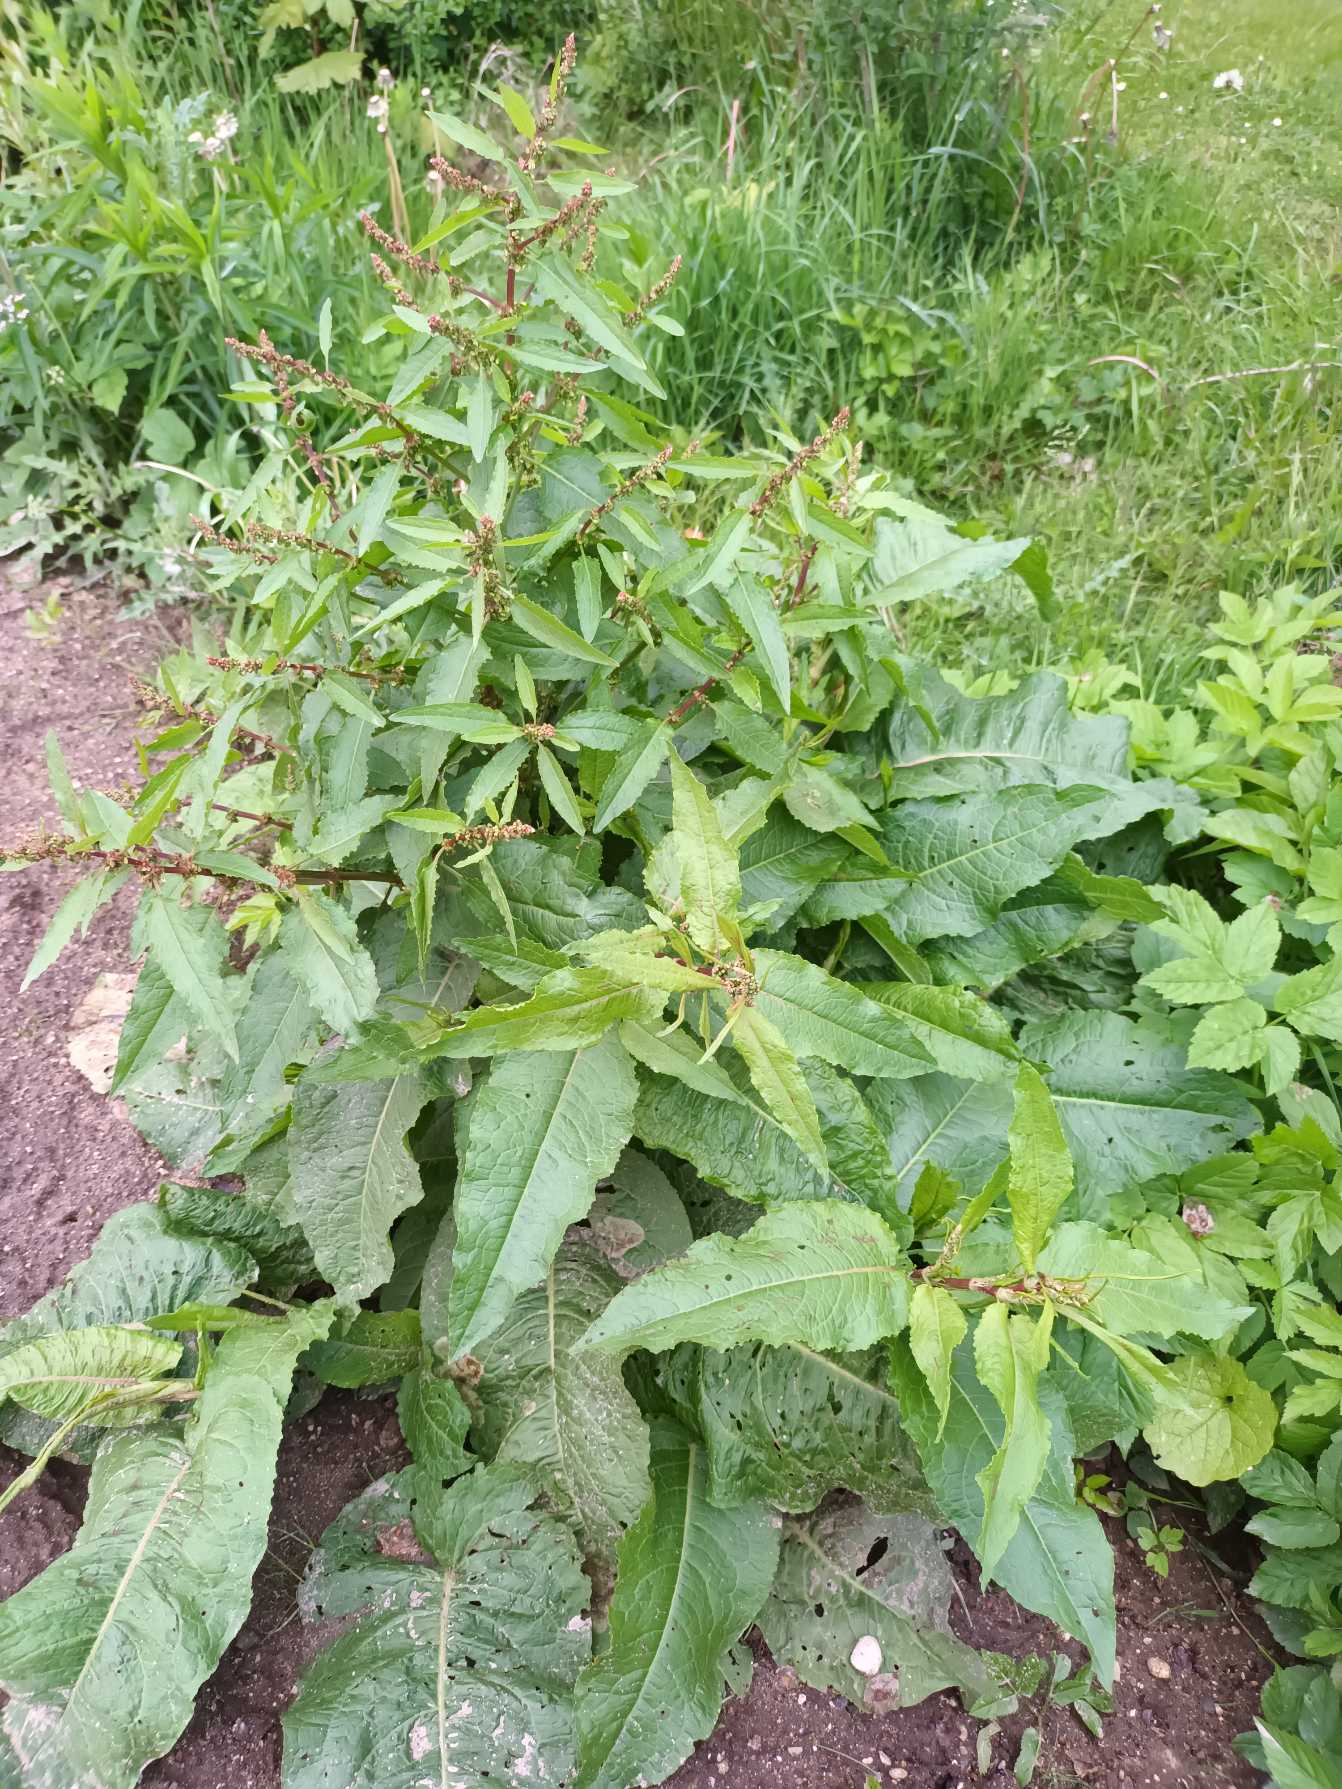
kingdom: Plantae
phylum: Tracheophyta
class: Magnoliopsida
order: Caryophyllales
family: Polygonaceae
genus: Rumex
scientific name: Rumex obtusifolius
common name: Butbladet skræppe
